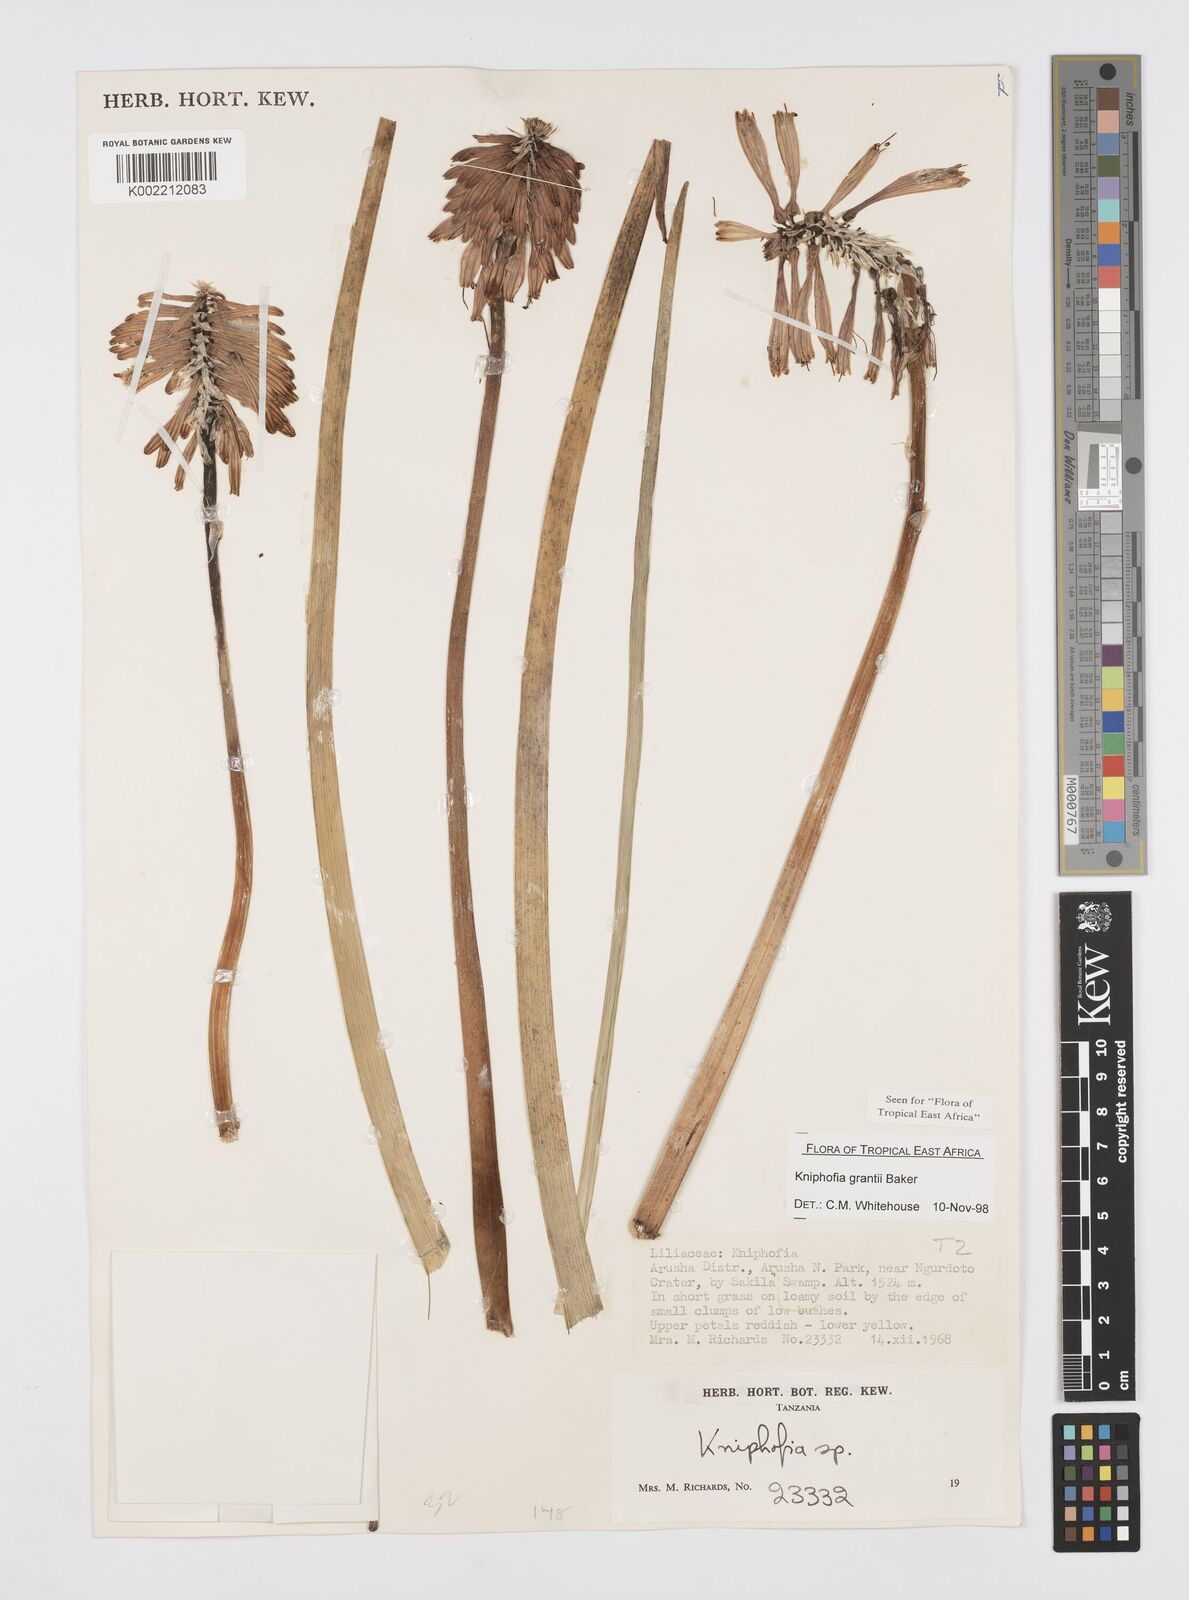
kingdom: Plantae
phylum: Tracheophyta
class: Liliopsida
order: Asparagales
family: Asphodelaceae
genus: Kniphofia
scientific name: Kniphofia grantii
